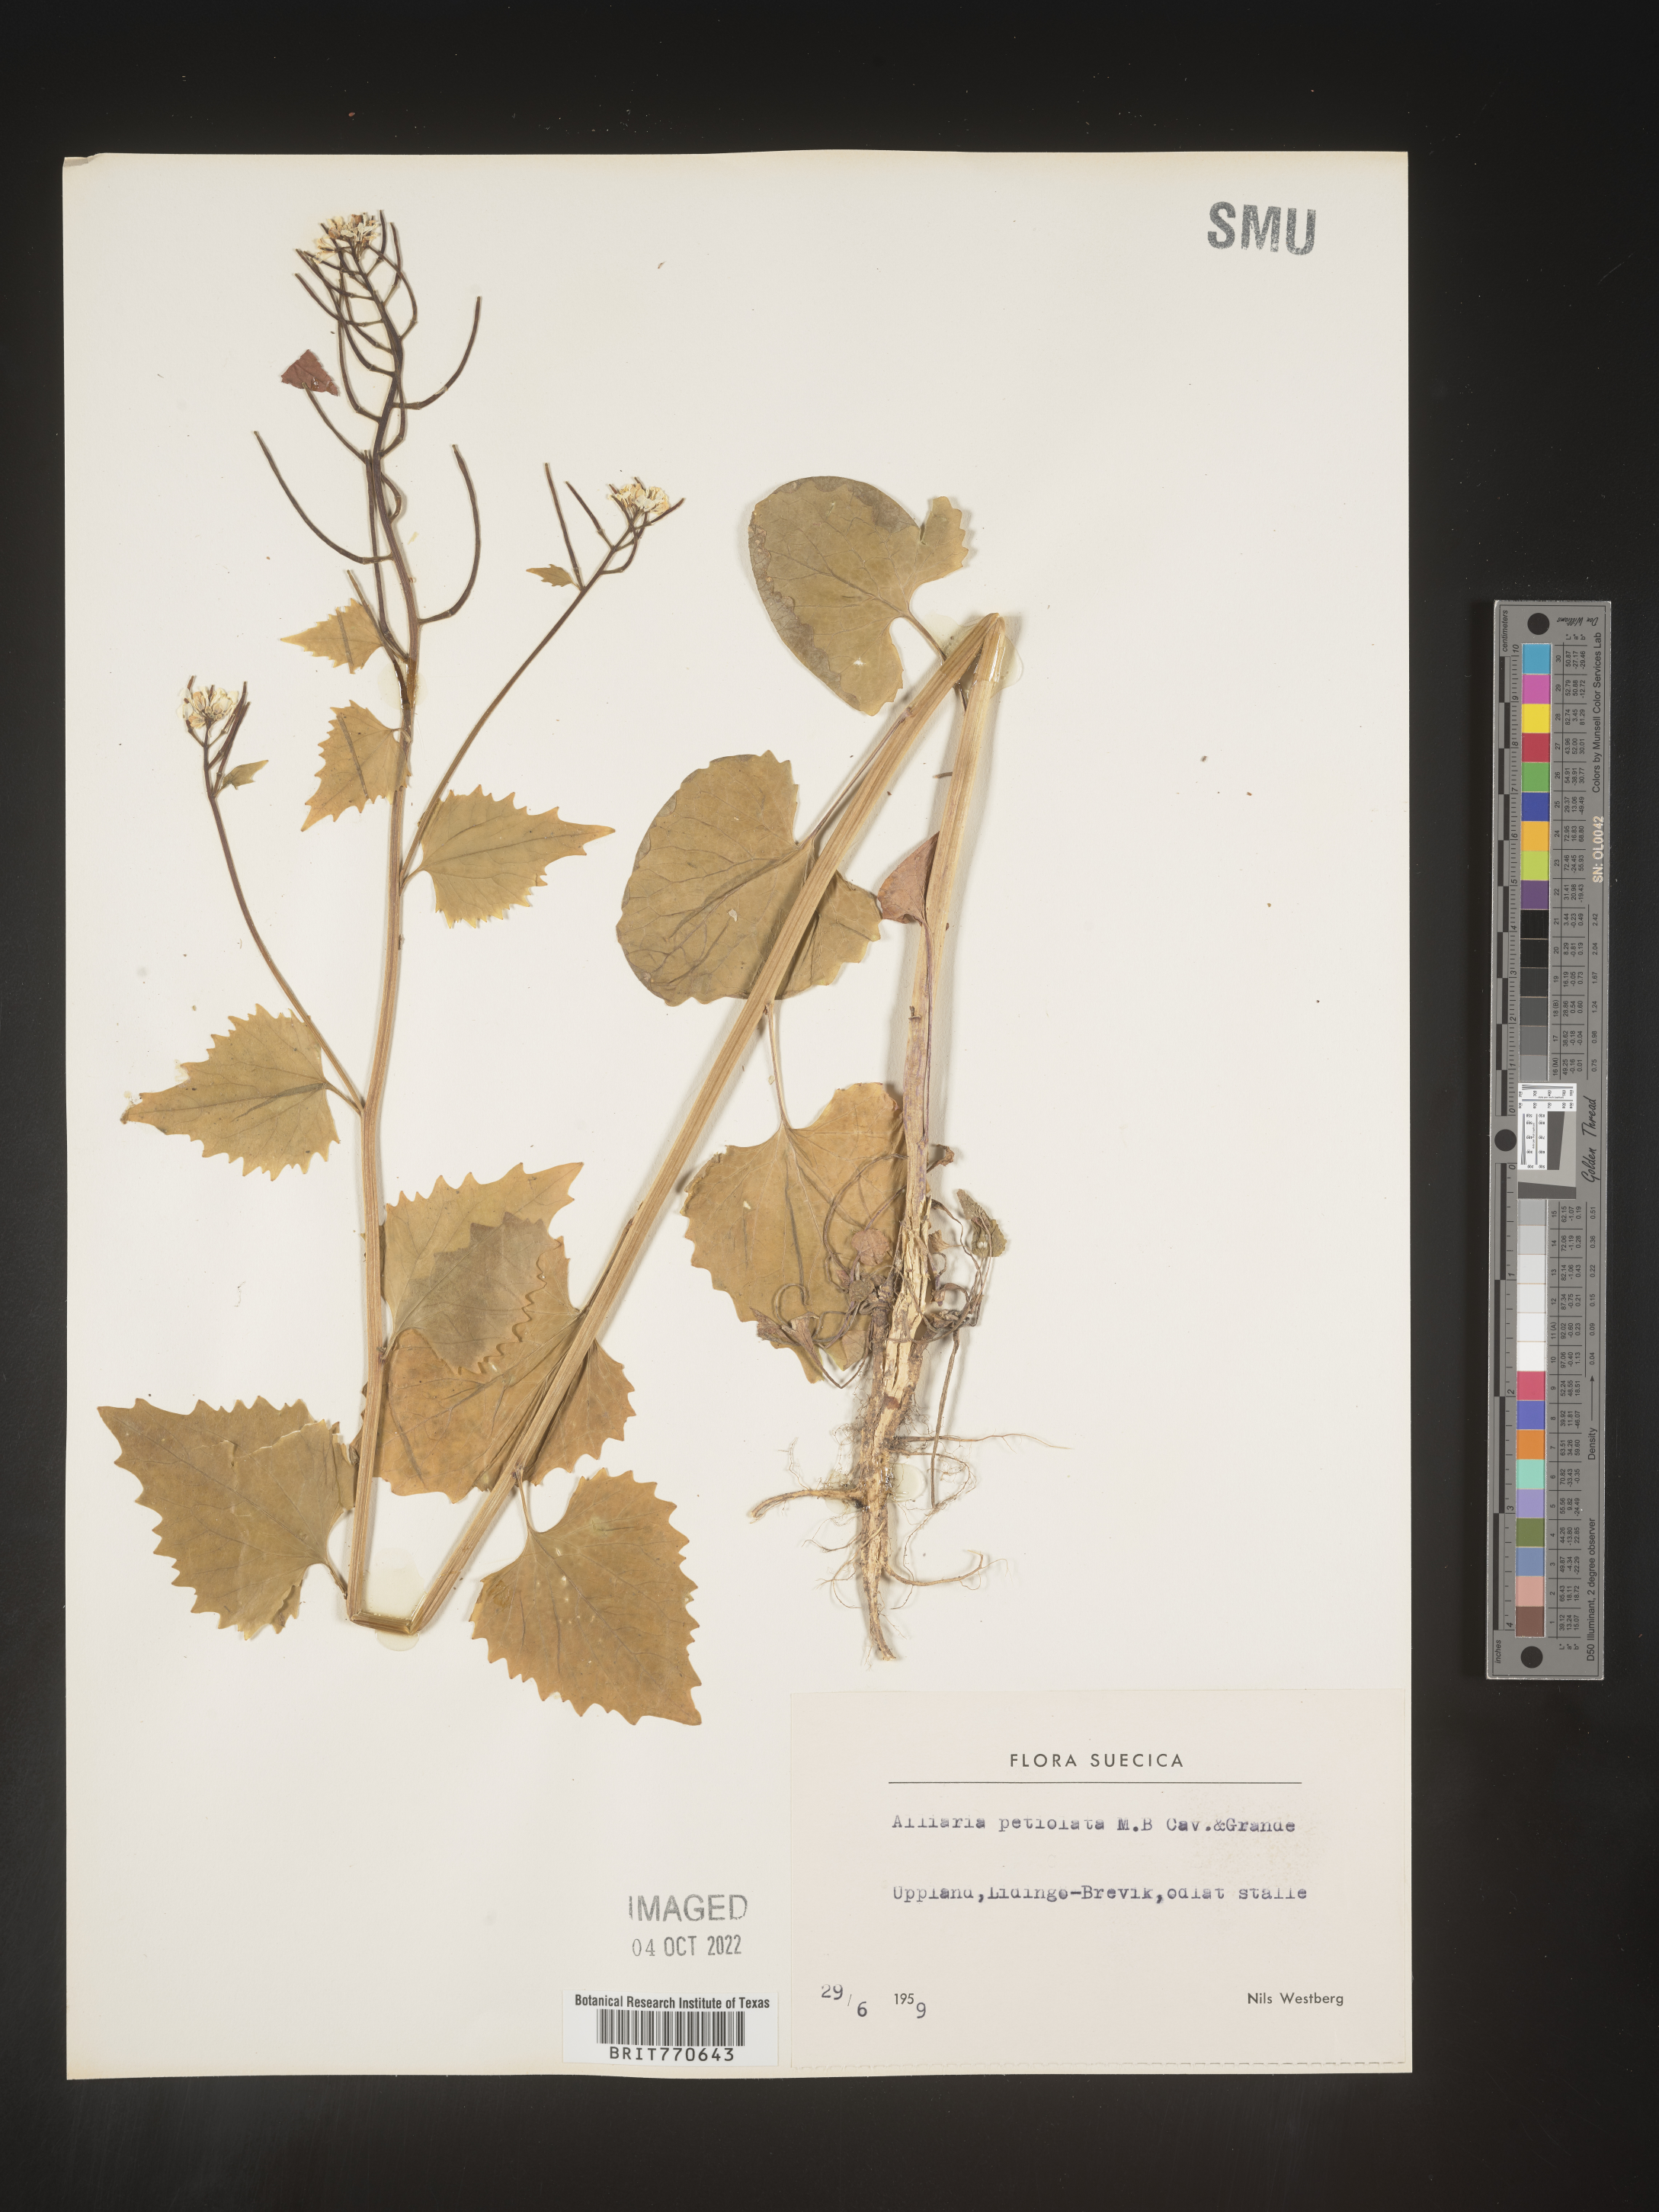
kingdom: Plantae
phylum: Tracheophyta
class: Magnoliopsida
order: Brassicales
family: Brassicaceae
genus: Alliaria
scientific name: Alliaria
